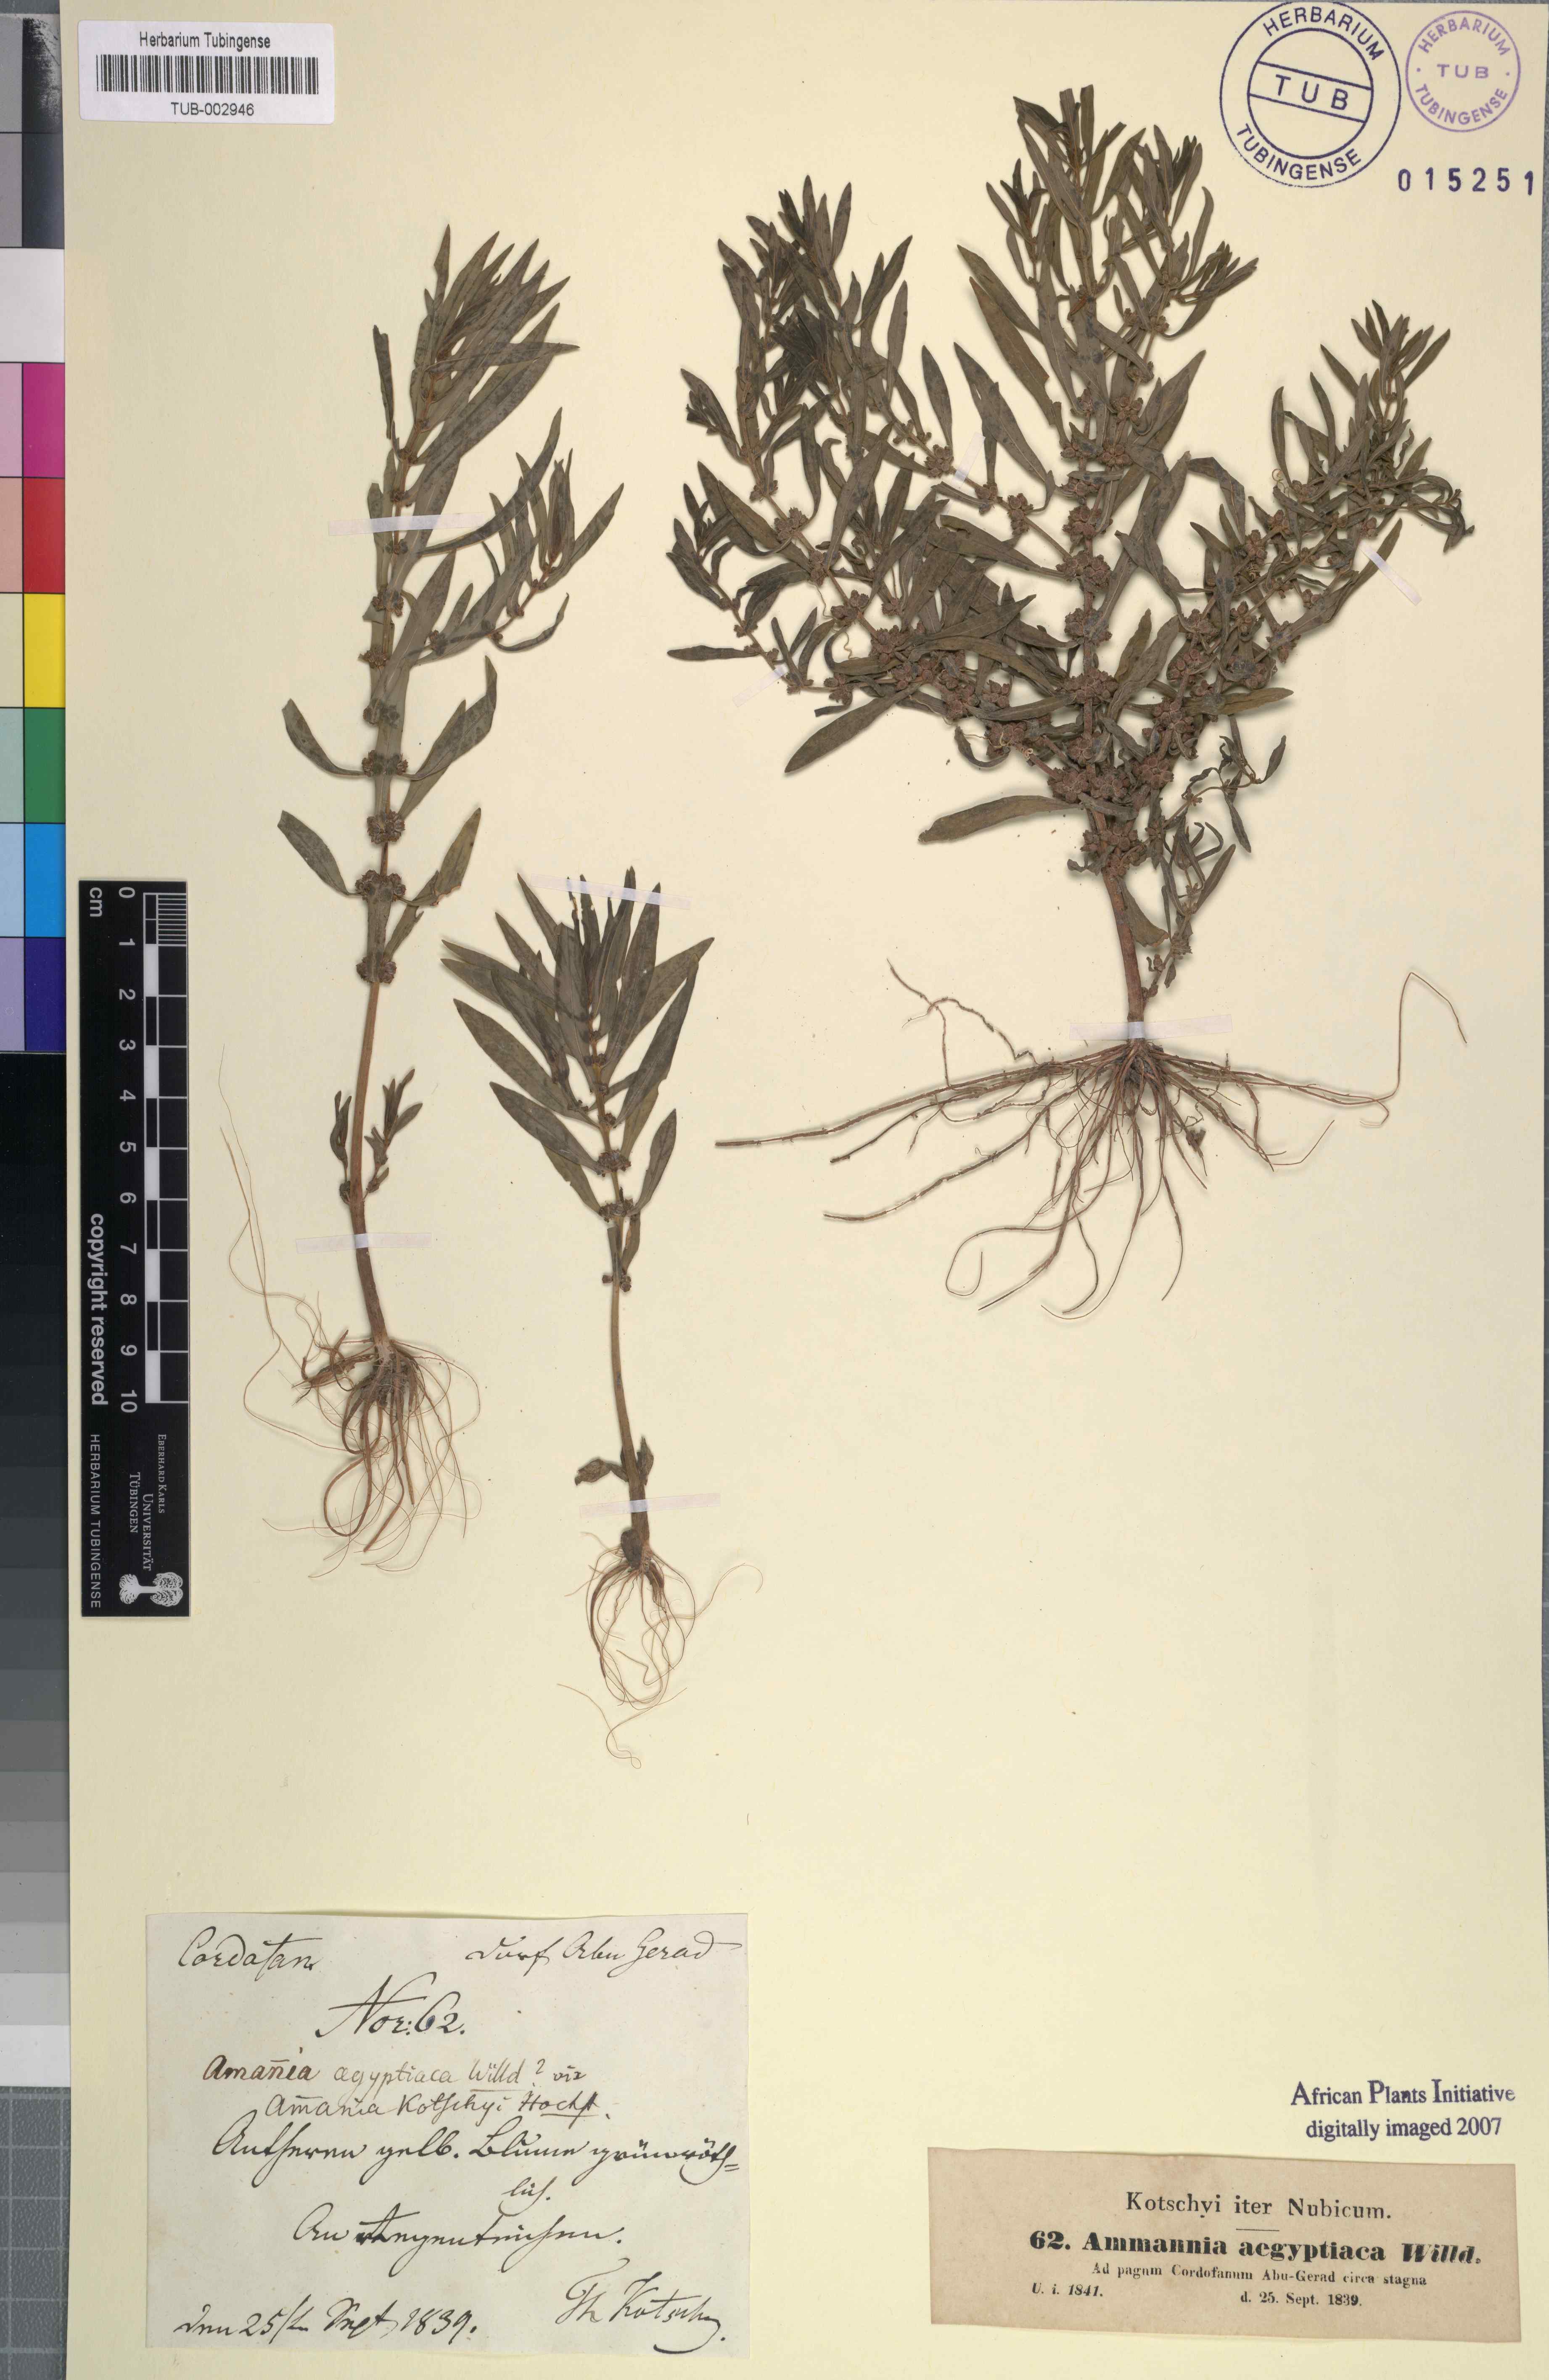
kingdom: Plantae
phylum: Tracheophyta
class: Magnoliopsida
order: Myrtales
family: Lythraceae
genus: Ammannia
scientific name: Ammannia baccifera
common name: Blistering ammania
